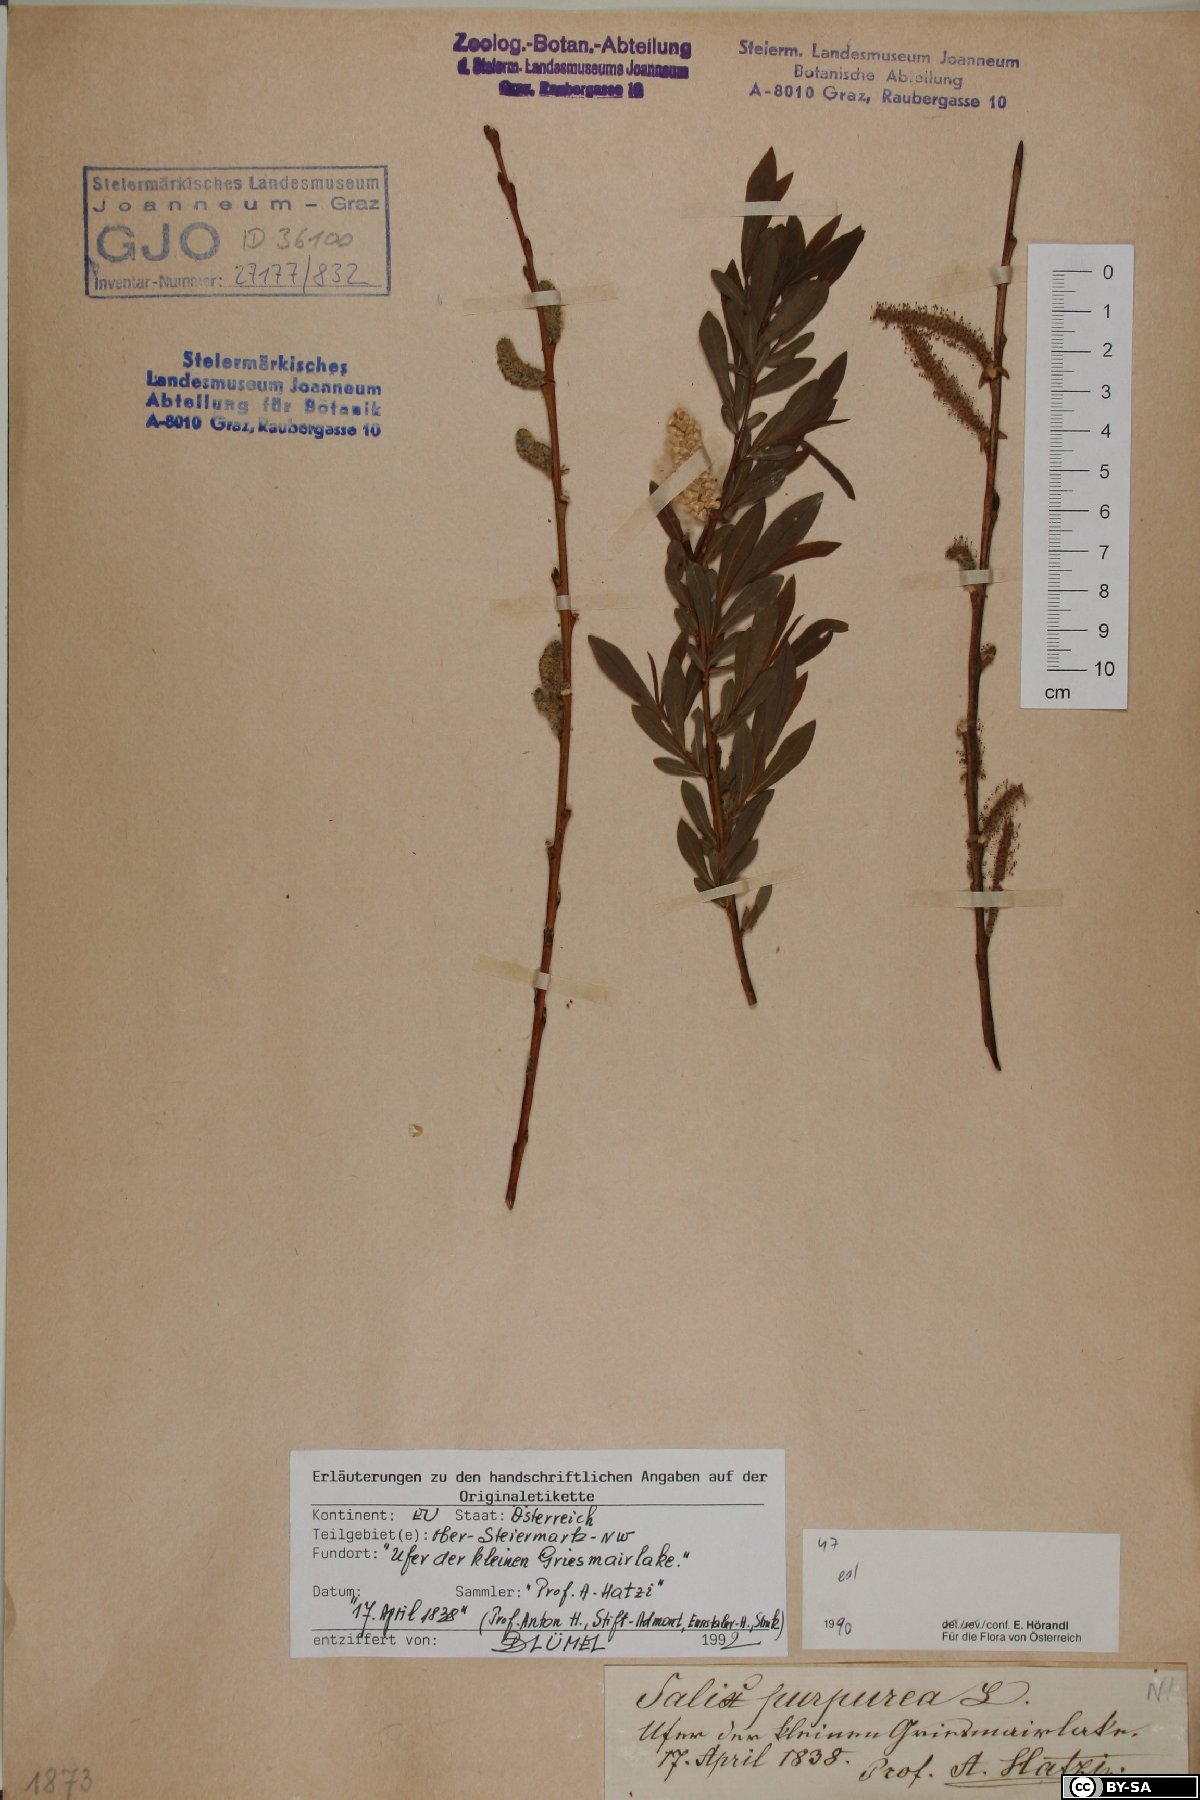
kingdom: Plantae
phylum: Tracheophyta
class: Magnoliopsida
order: Malpighiales
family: Salicaceae
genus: Salix
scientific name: Salix purpurea
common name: Purple willow
